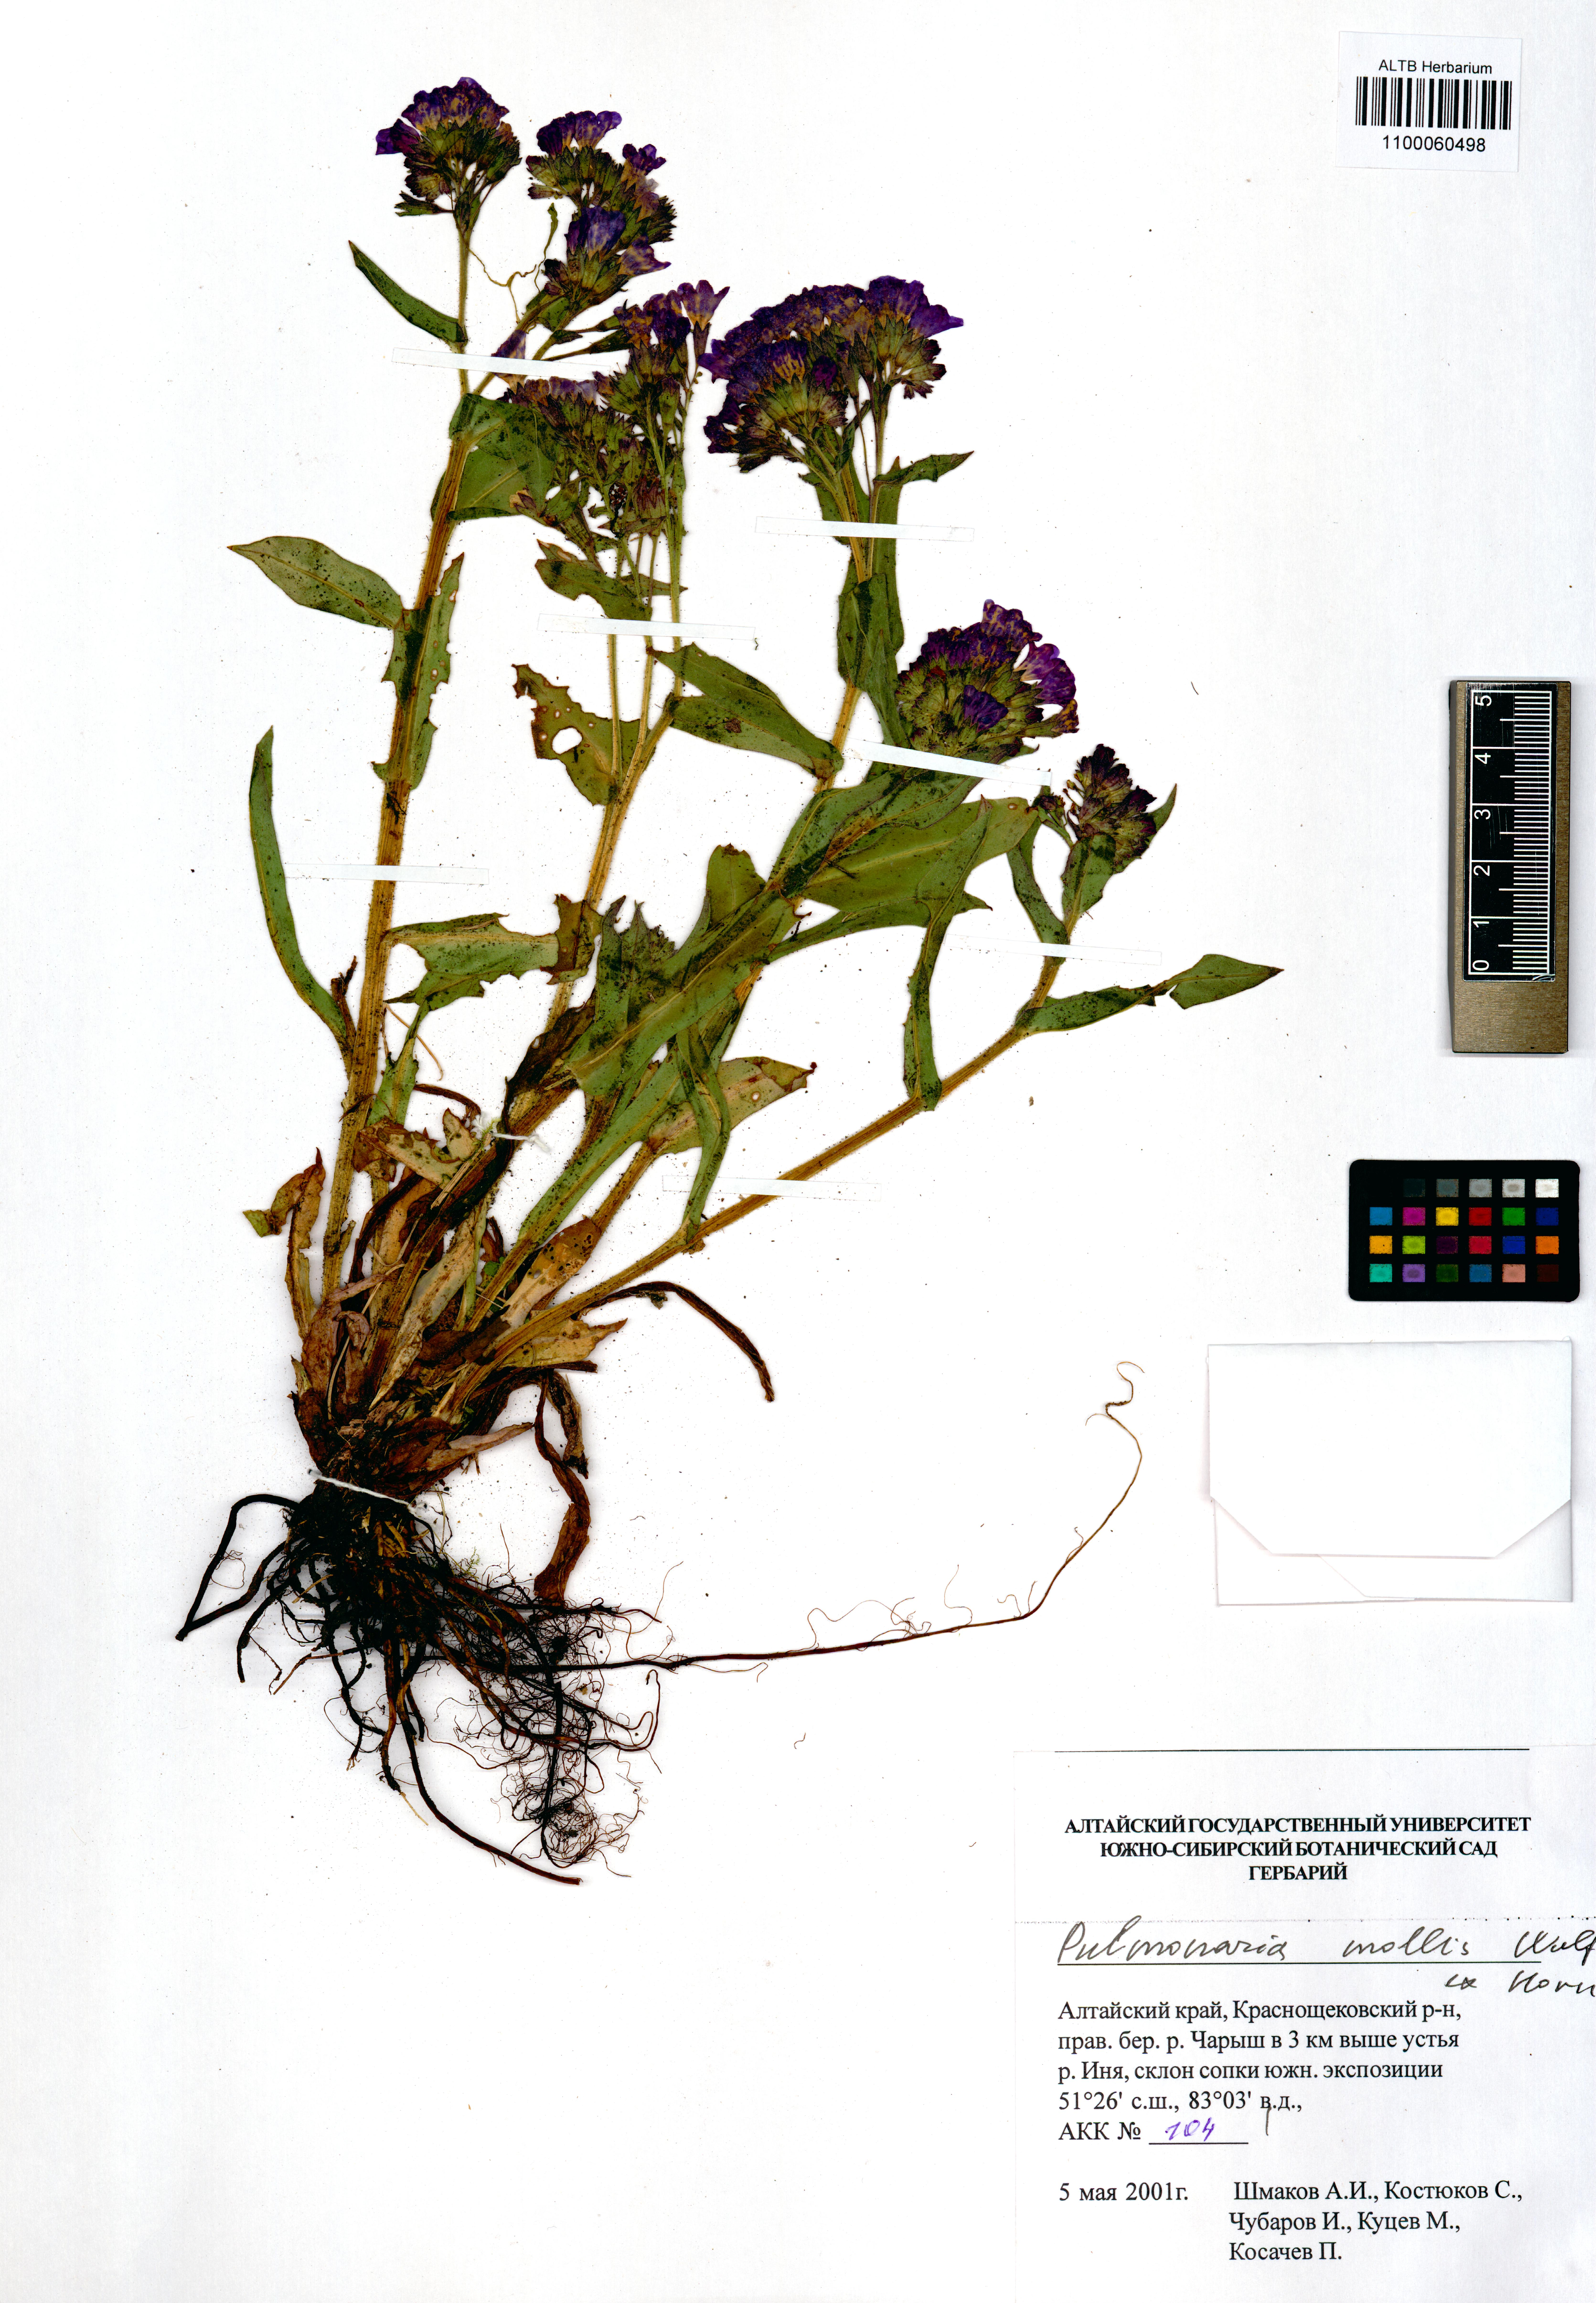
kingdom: Plantae
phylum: Tracheophyta
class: Magnoliopsida
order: Boraginales
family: Boraginaceae
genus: Pulmonaria
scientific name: Pulmonaria mollis
